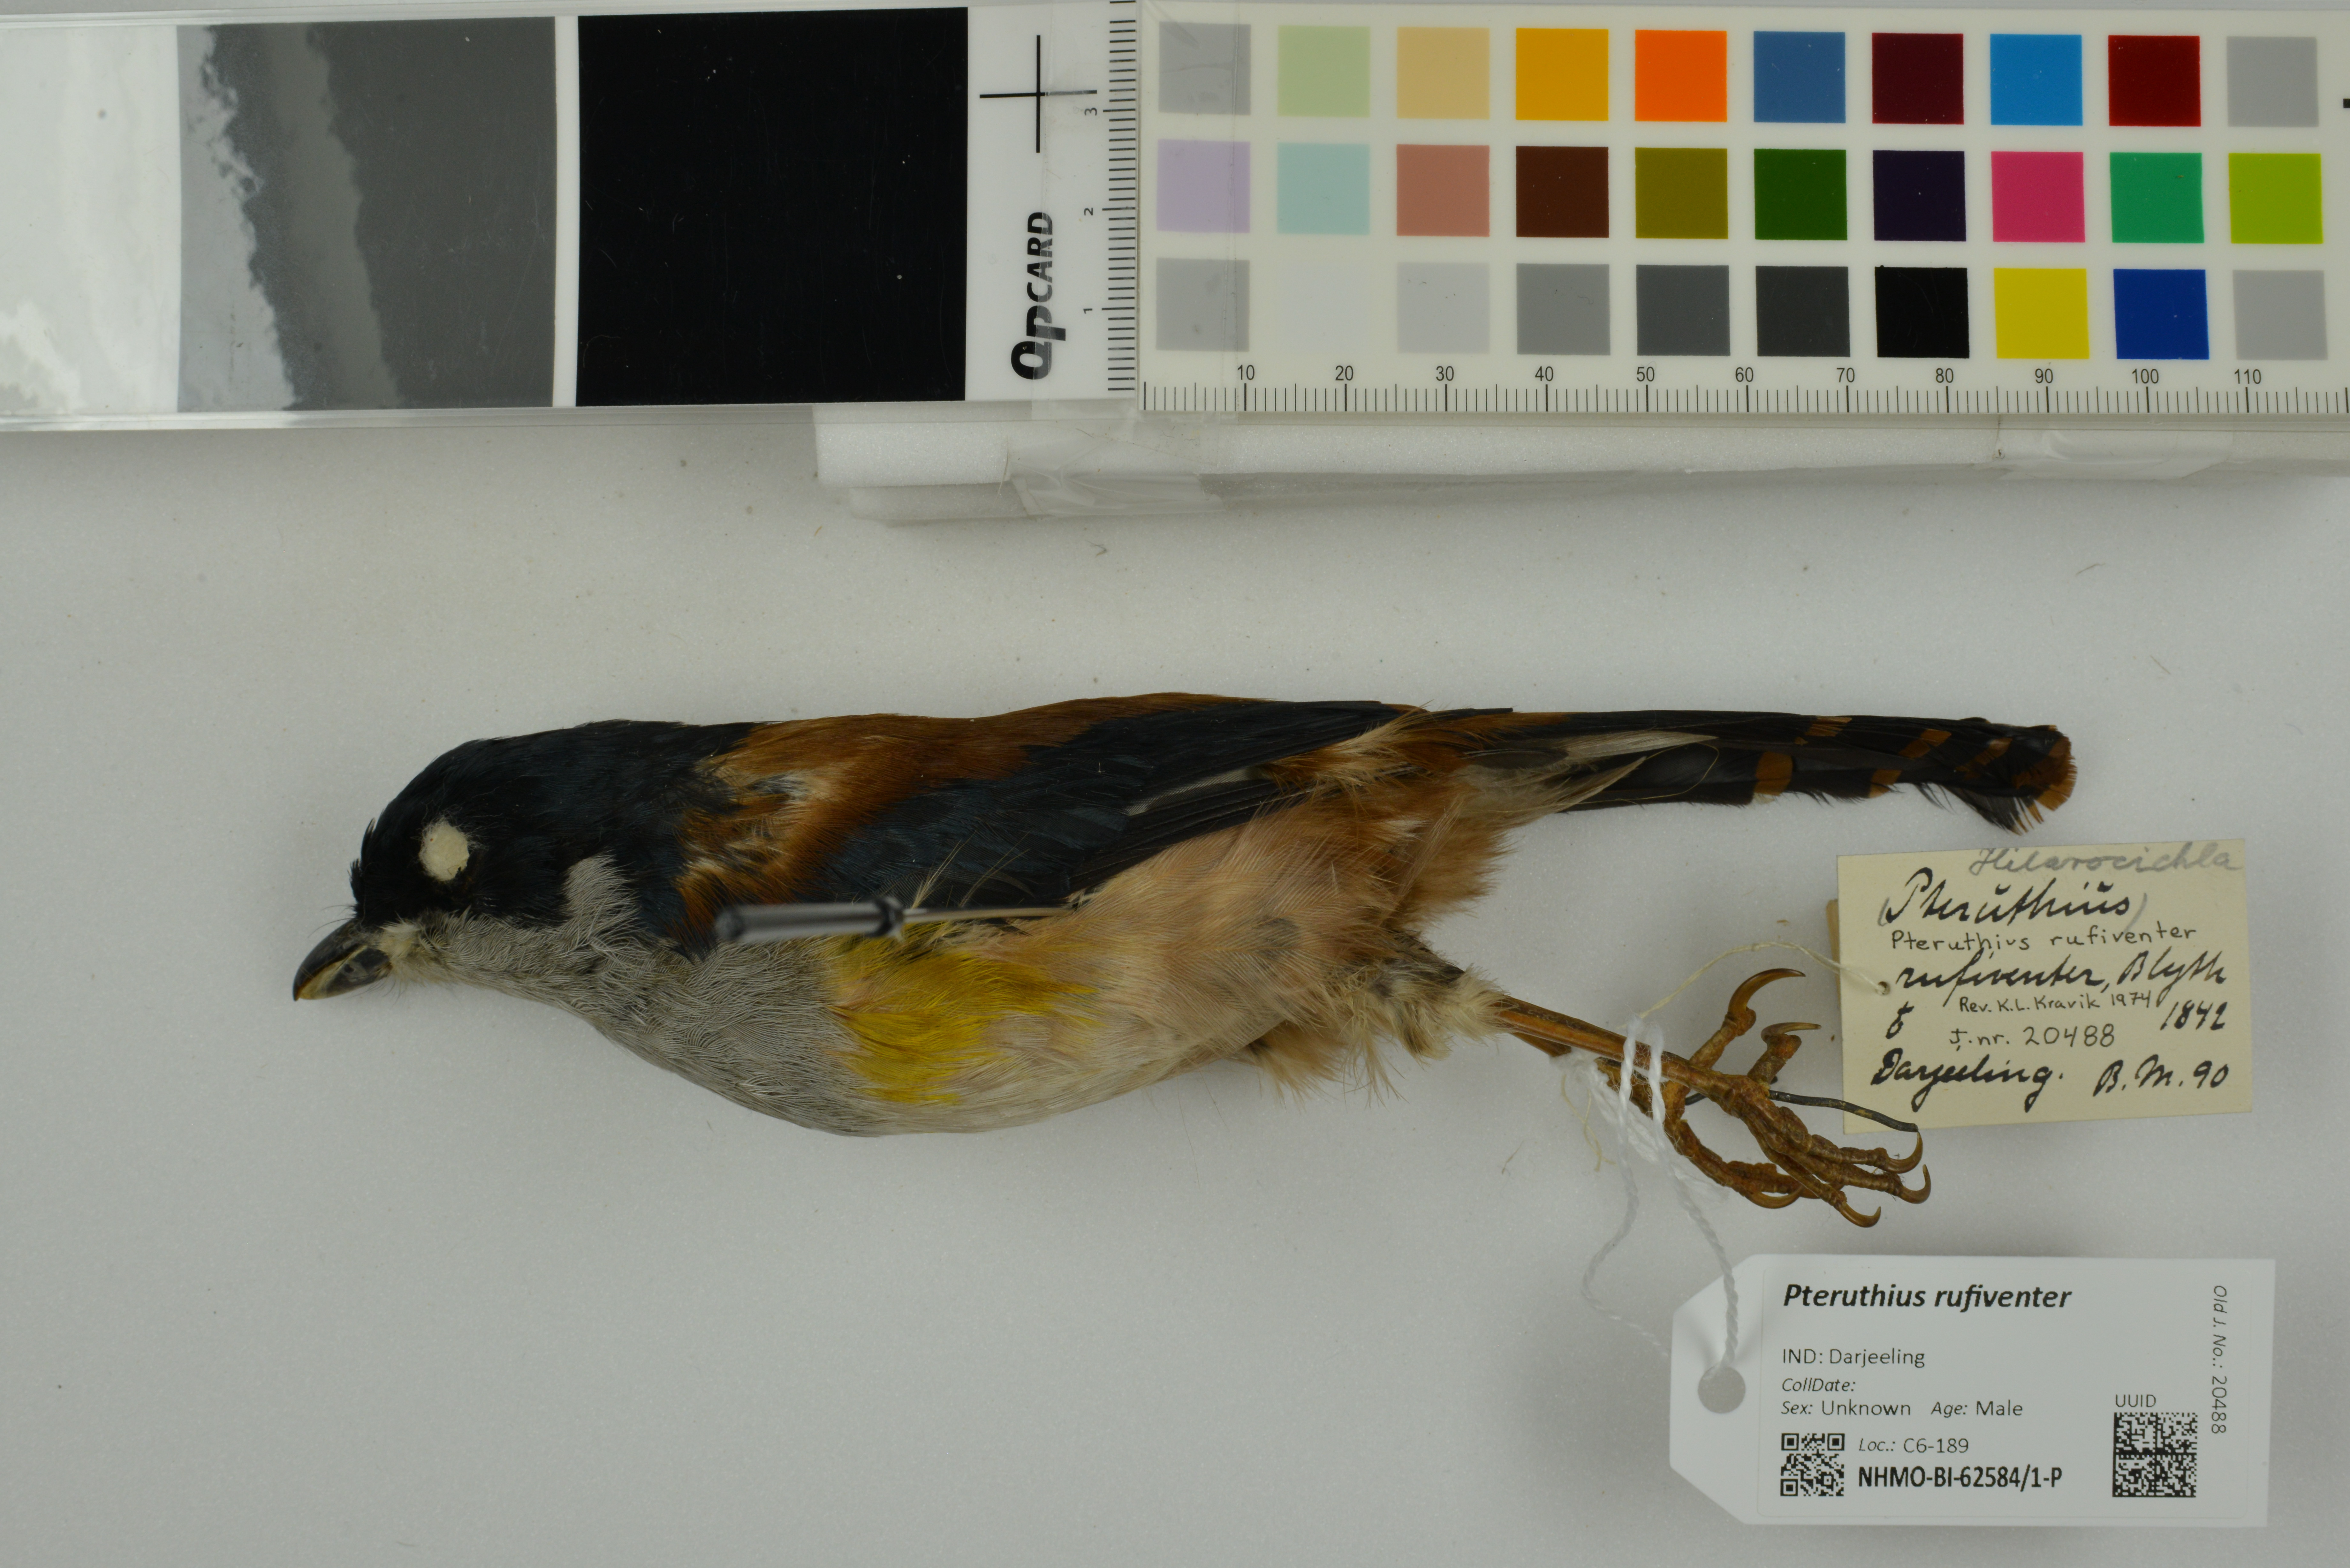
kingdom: Animalia
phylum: Chordata
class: Aves
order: Passeriformes
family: Vireonidae
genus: Pteruthius
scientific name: Pteruthius rufiventer
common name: Black-headed shrike-babbler
